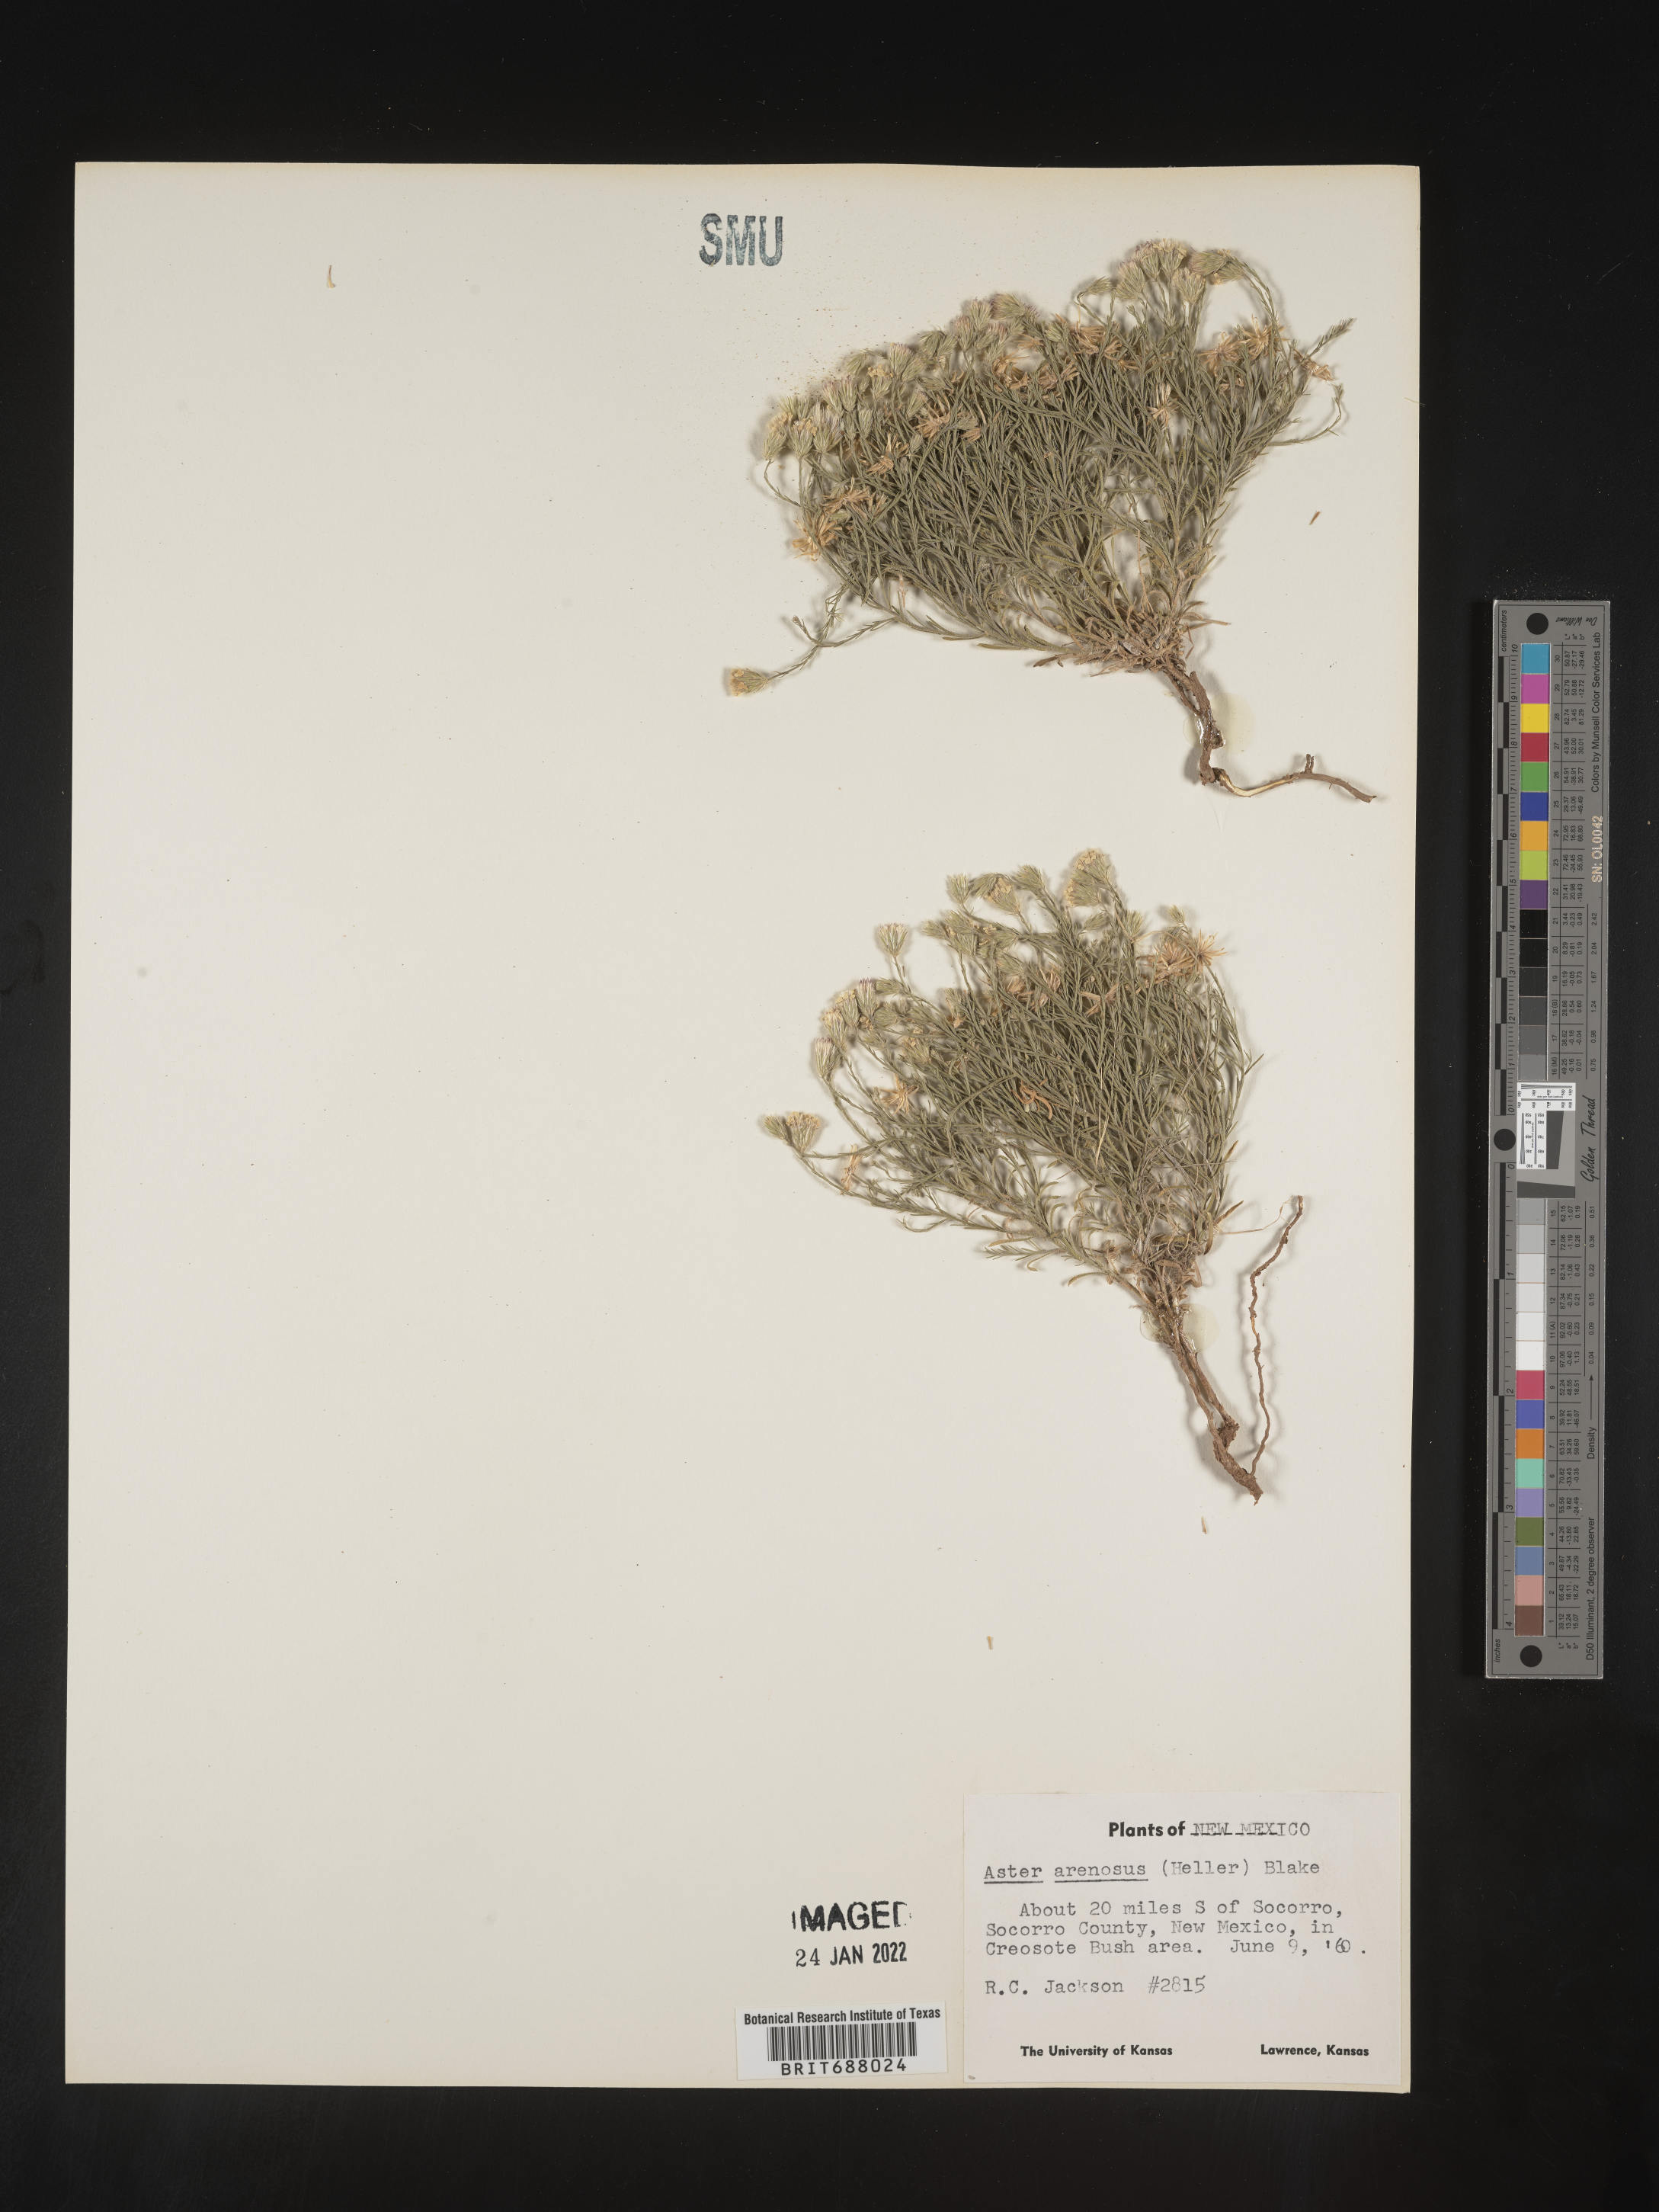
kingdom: Plantae
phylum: Tracheophyta
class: Magnoliopsida
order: Asterales
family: Asteraceae
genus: Chaetopappa
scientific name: Chaetopappa ericoides
